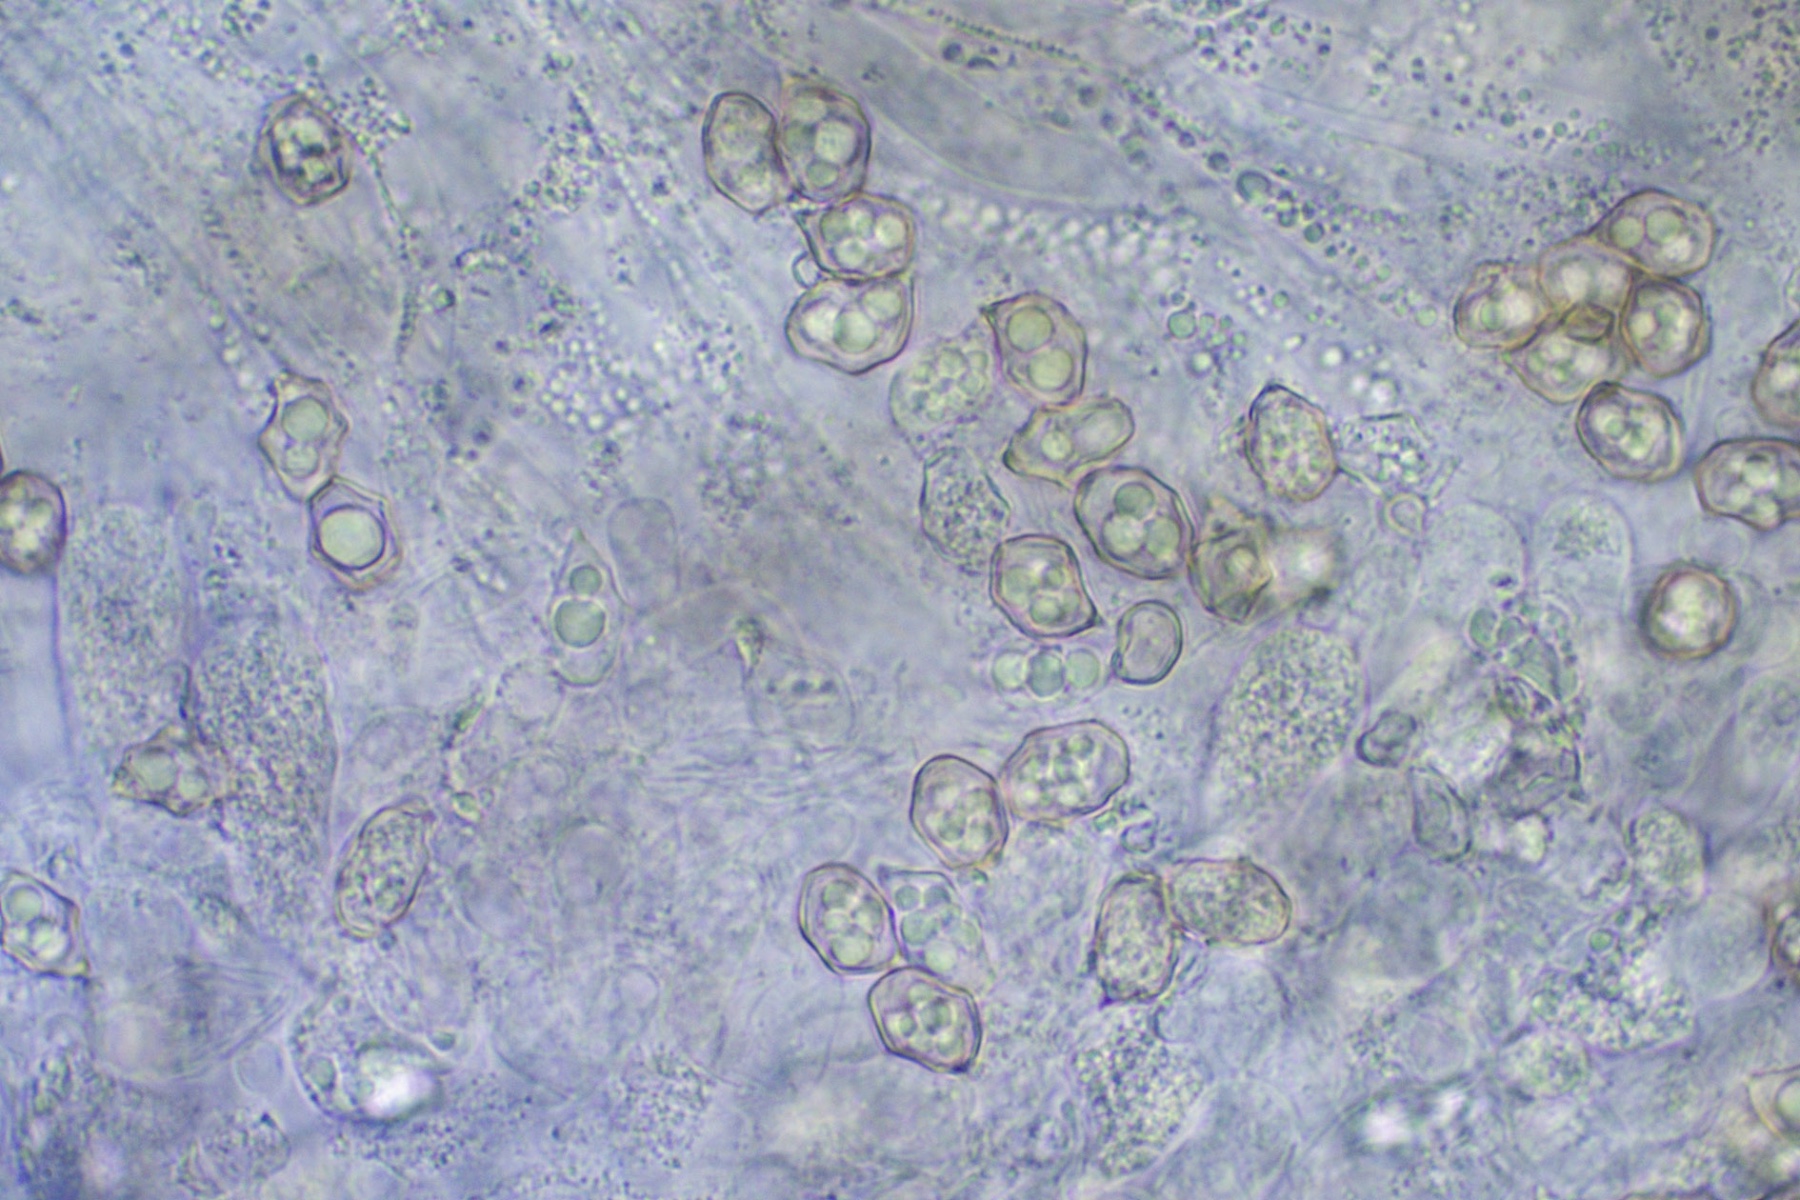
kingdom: Fungi
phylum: Basidiomycota
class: Agaricomycetes
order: Agaricales
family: Entolomataceae
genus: Entoloma
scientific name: Entoloma
